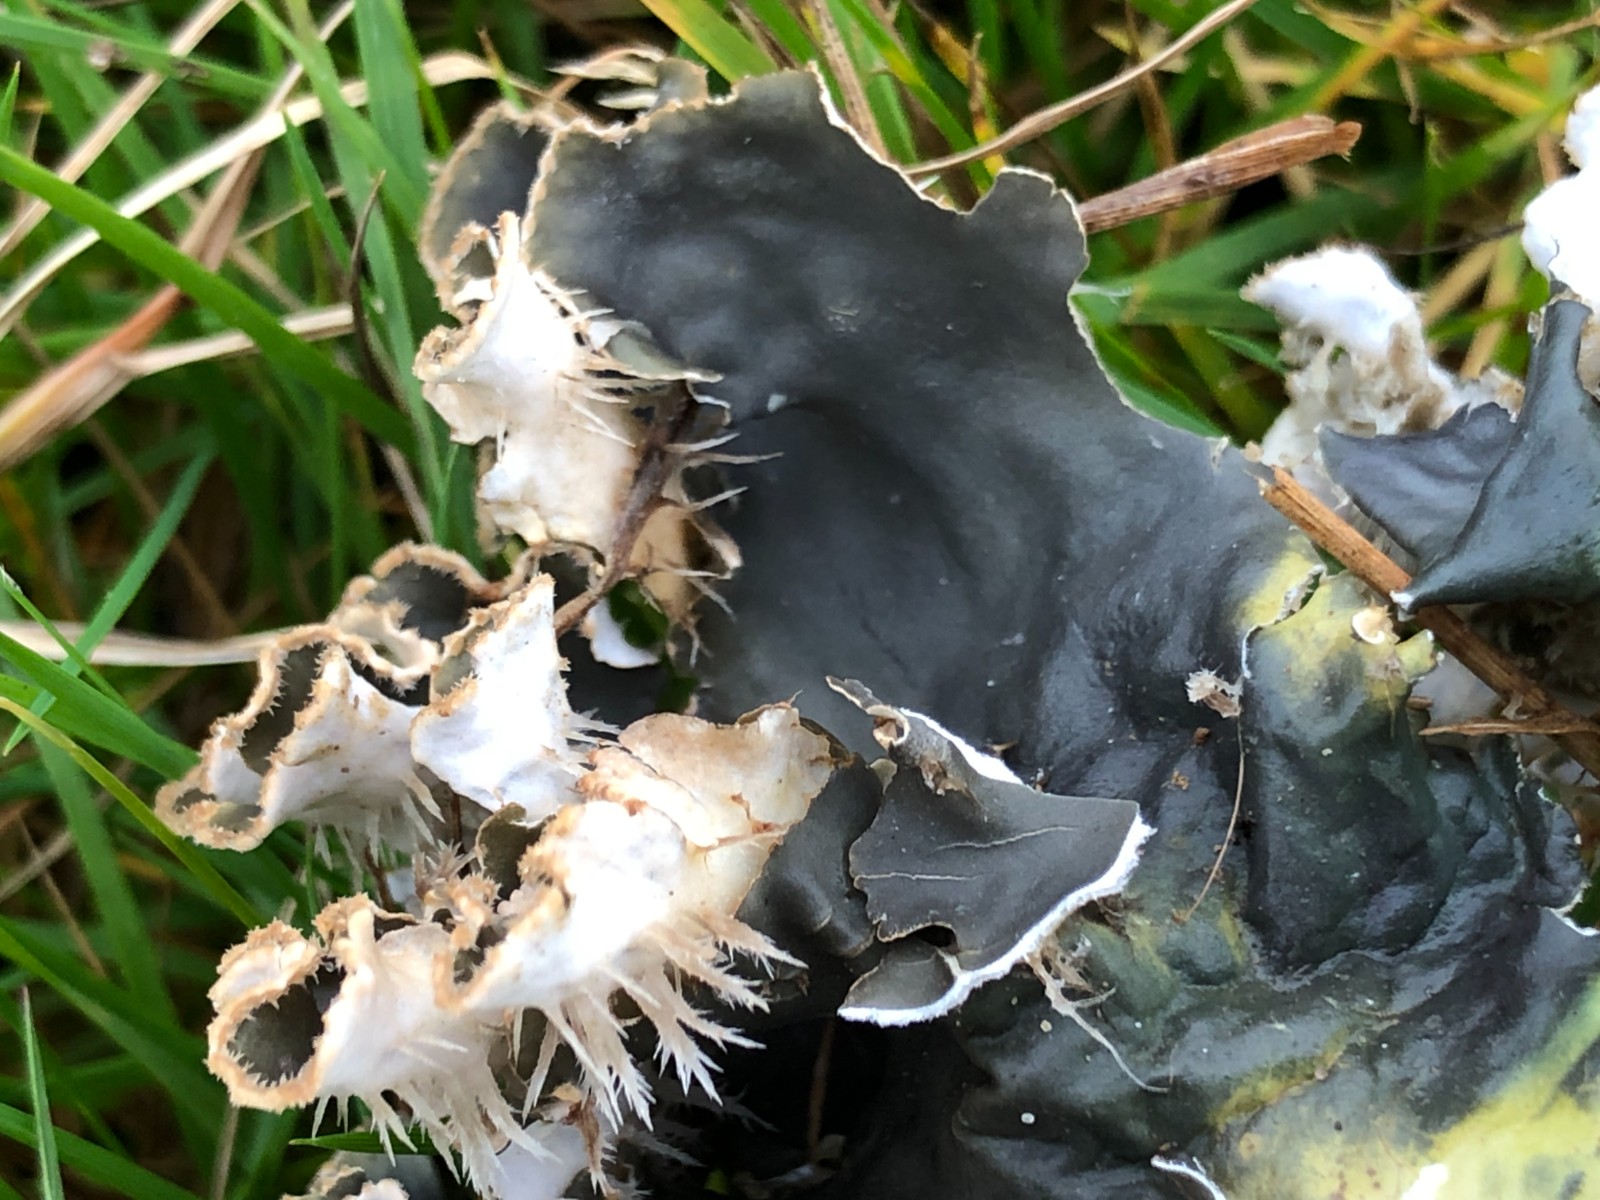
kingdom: Fungi
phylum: Ascomycota
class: Lecanoromycetes
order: Peltigerales
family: Peltigeraceae
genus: Peltigera
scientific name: Peltigera neckeri
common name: glinsende skjoldlav
